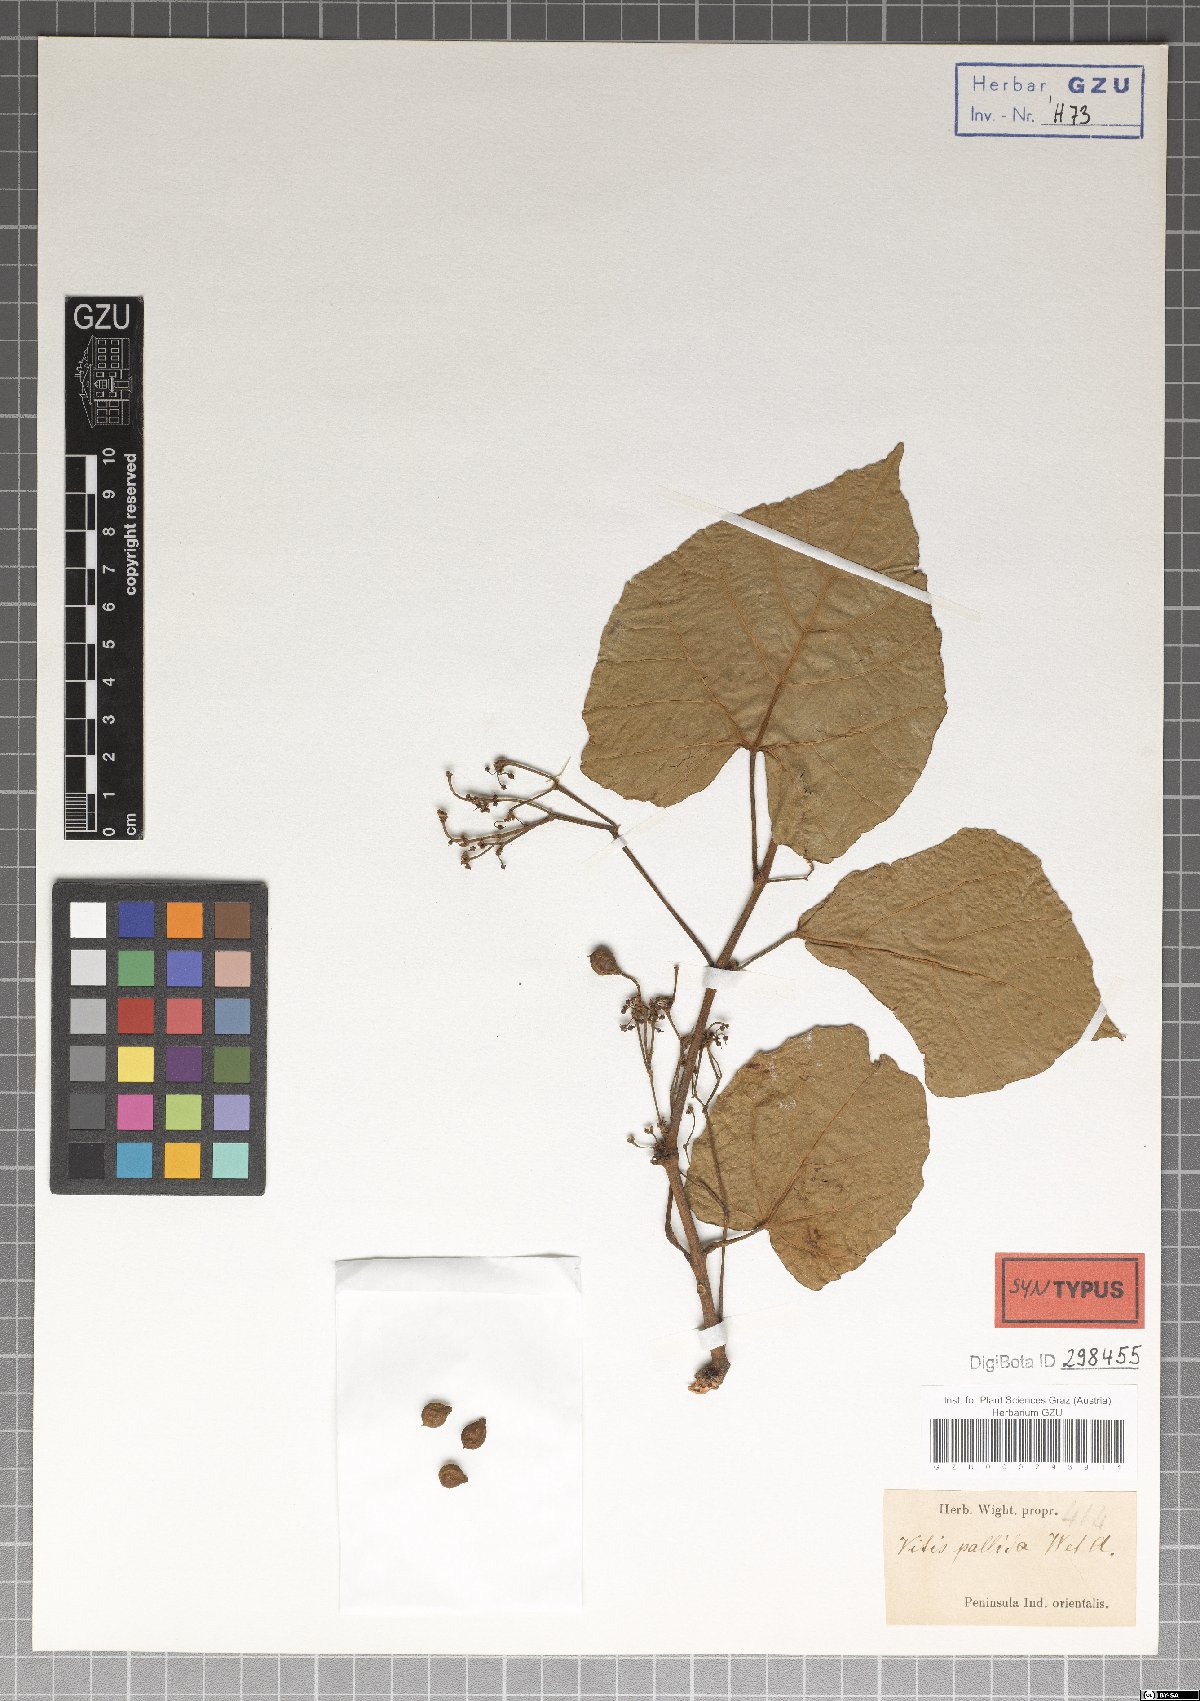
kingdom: Plantae
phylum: Tracheophyta
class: Magnoliopsida
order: Vitales
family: Vitaceae
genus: Cissus
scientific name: Cissus
